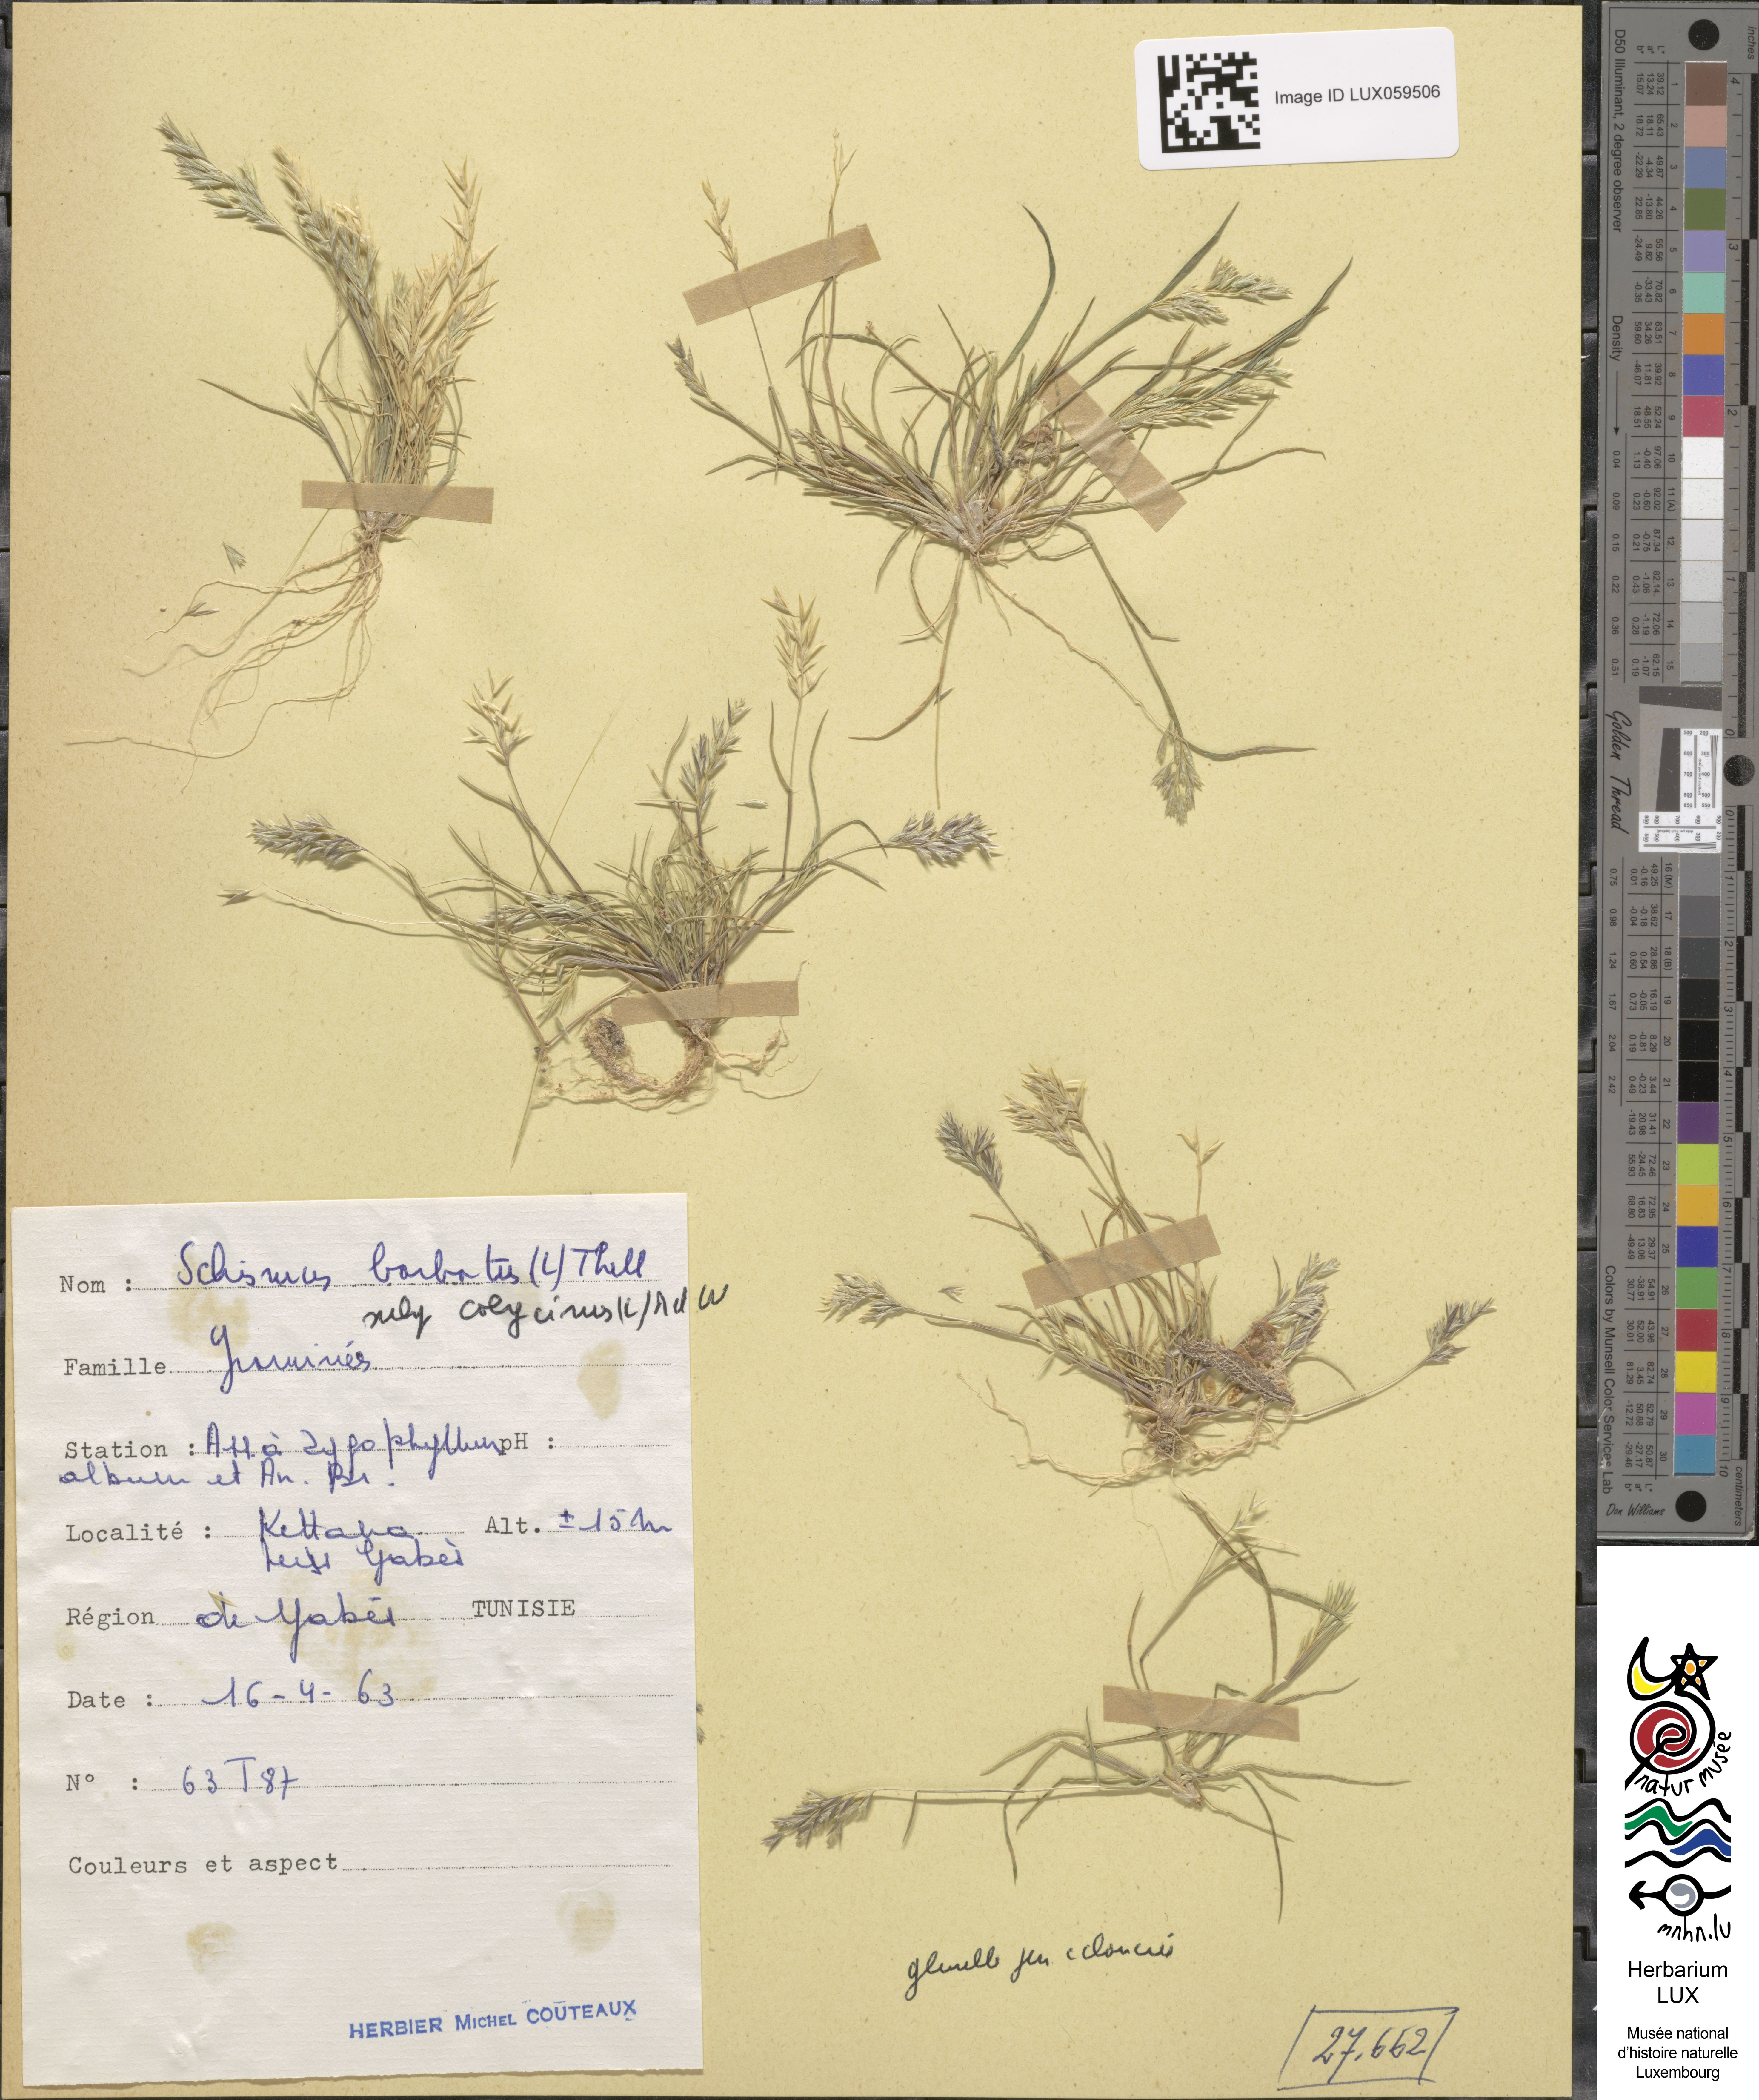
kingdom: Plantae
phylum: Tracheophyta
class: Liliopsida
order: Poales
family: Poaceae
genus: Schismus
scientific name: Schismus barbatus
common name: Kelch-grass
